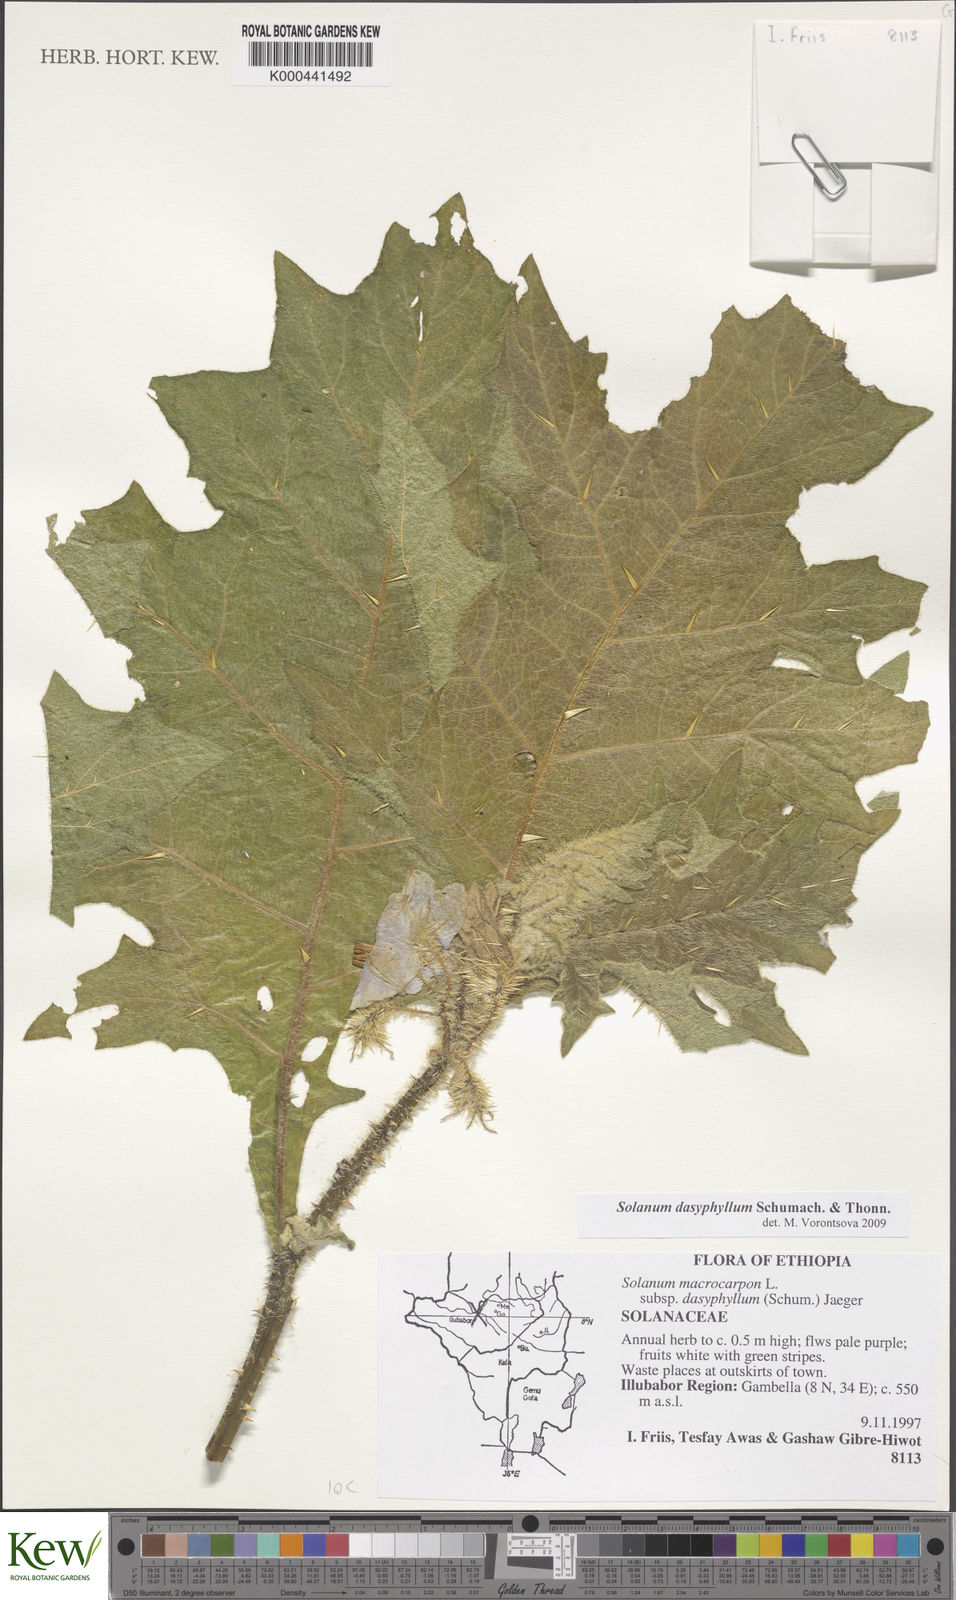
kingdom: Plantae
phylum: Tracheophyta
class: Magnoliopsida
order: Solanales
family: Solanaceae
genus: Solanum
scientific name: Solanum dasyphyllum
